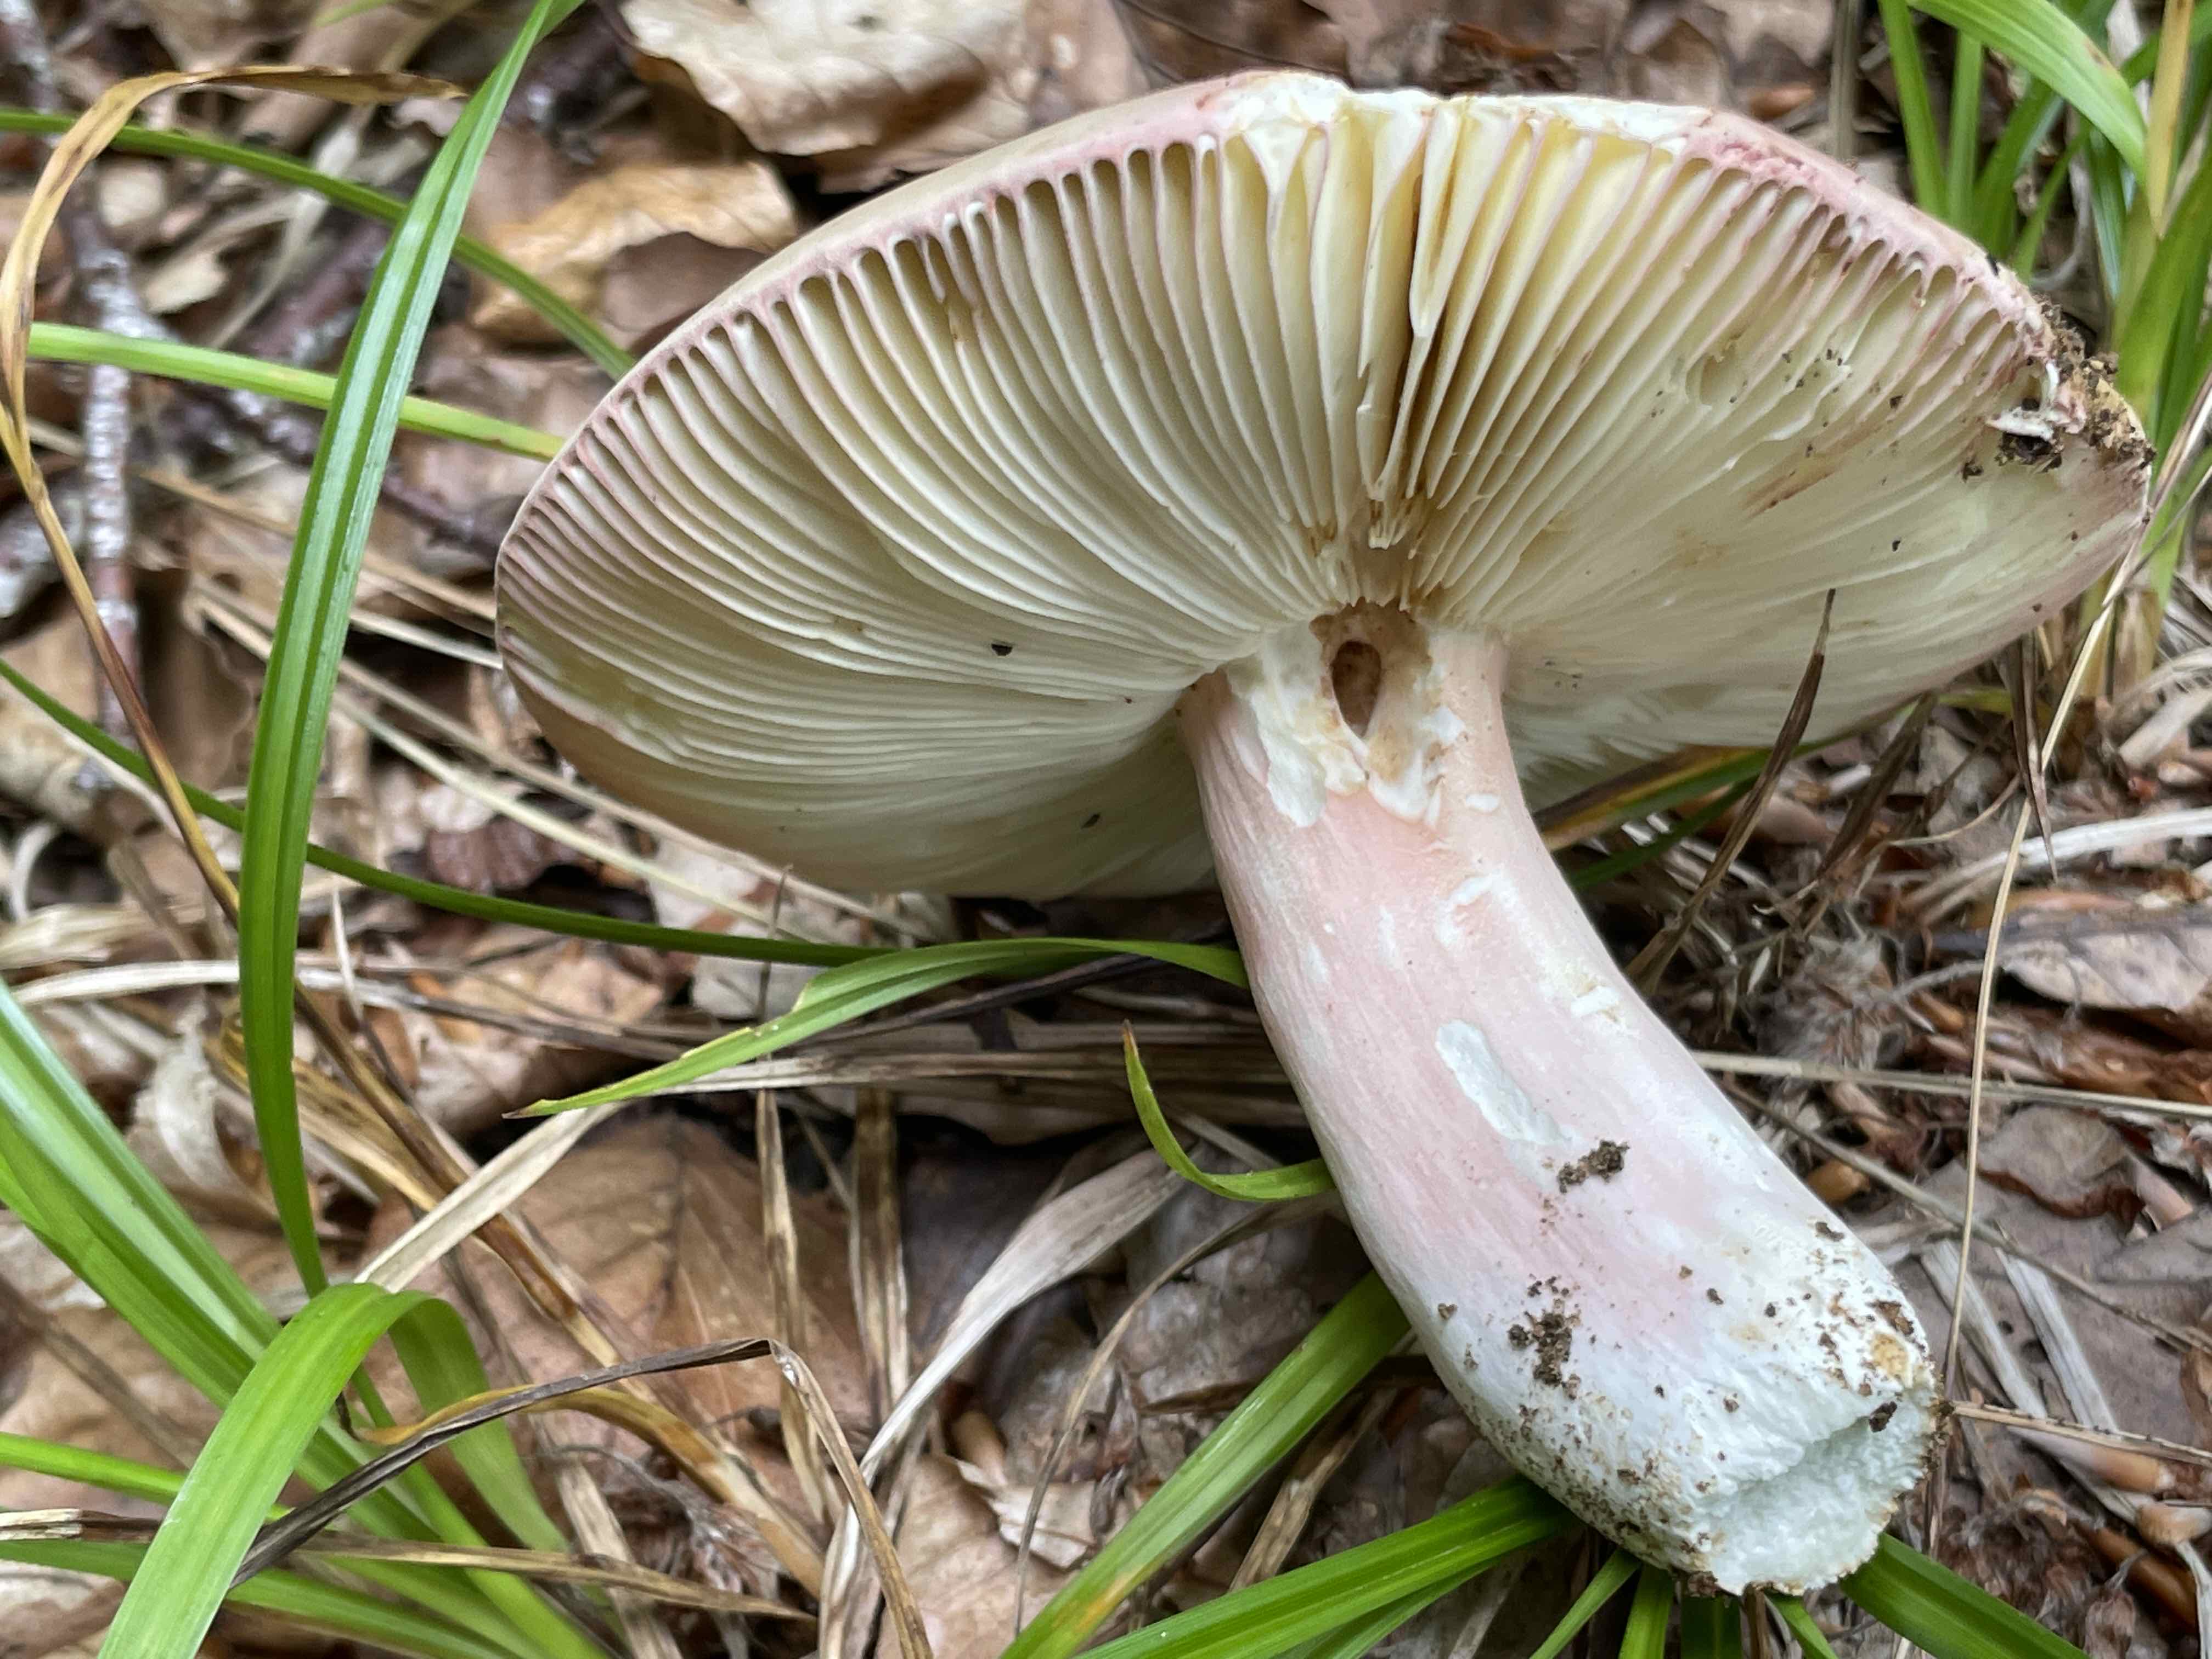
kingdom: Fungi
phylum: Basidiomycota
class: Agaricomycetes
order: Russulales
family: Russulaceae
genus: Russula
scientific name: Russula olivacea
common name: stor skørhat
